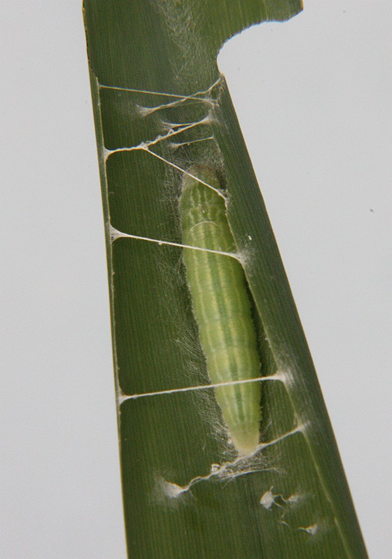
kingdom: Animalia
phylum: Arthropoda
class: Insecta
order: Lepidoptera
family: Hesperiidae
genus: Thymelicus
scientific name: Thymelicus lineola
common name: European Skipper
